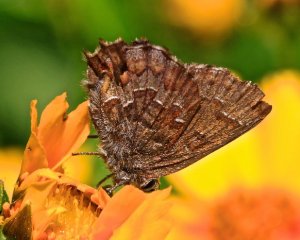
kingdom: Animalia
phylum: Arthropoda
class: Insecta
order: Lepidoptera
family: Lycaenidae
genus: Incisalia
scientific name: Incisalia niphon
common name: Eastern Pine Elfin
